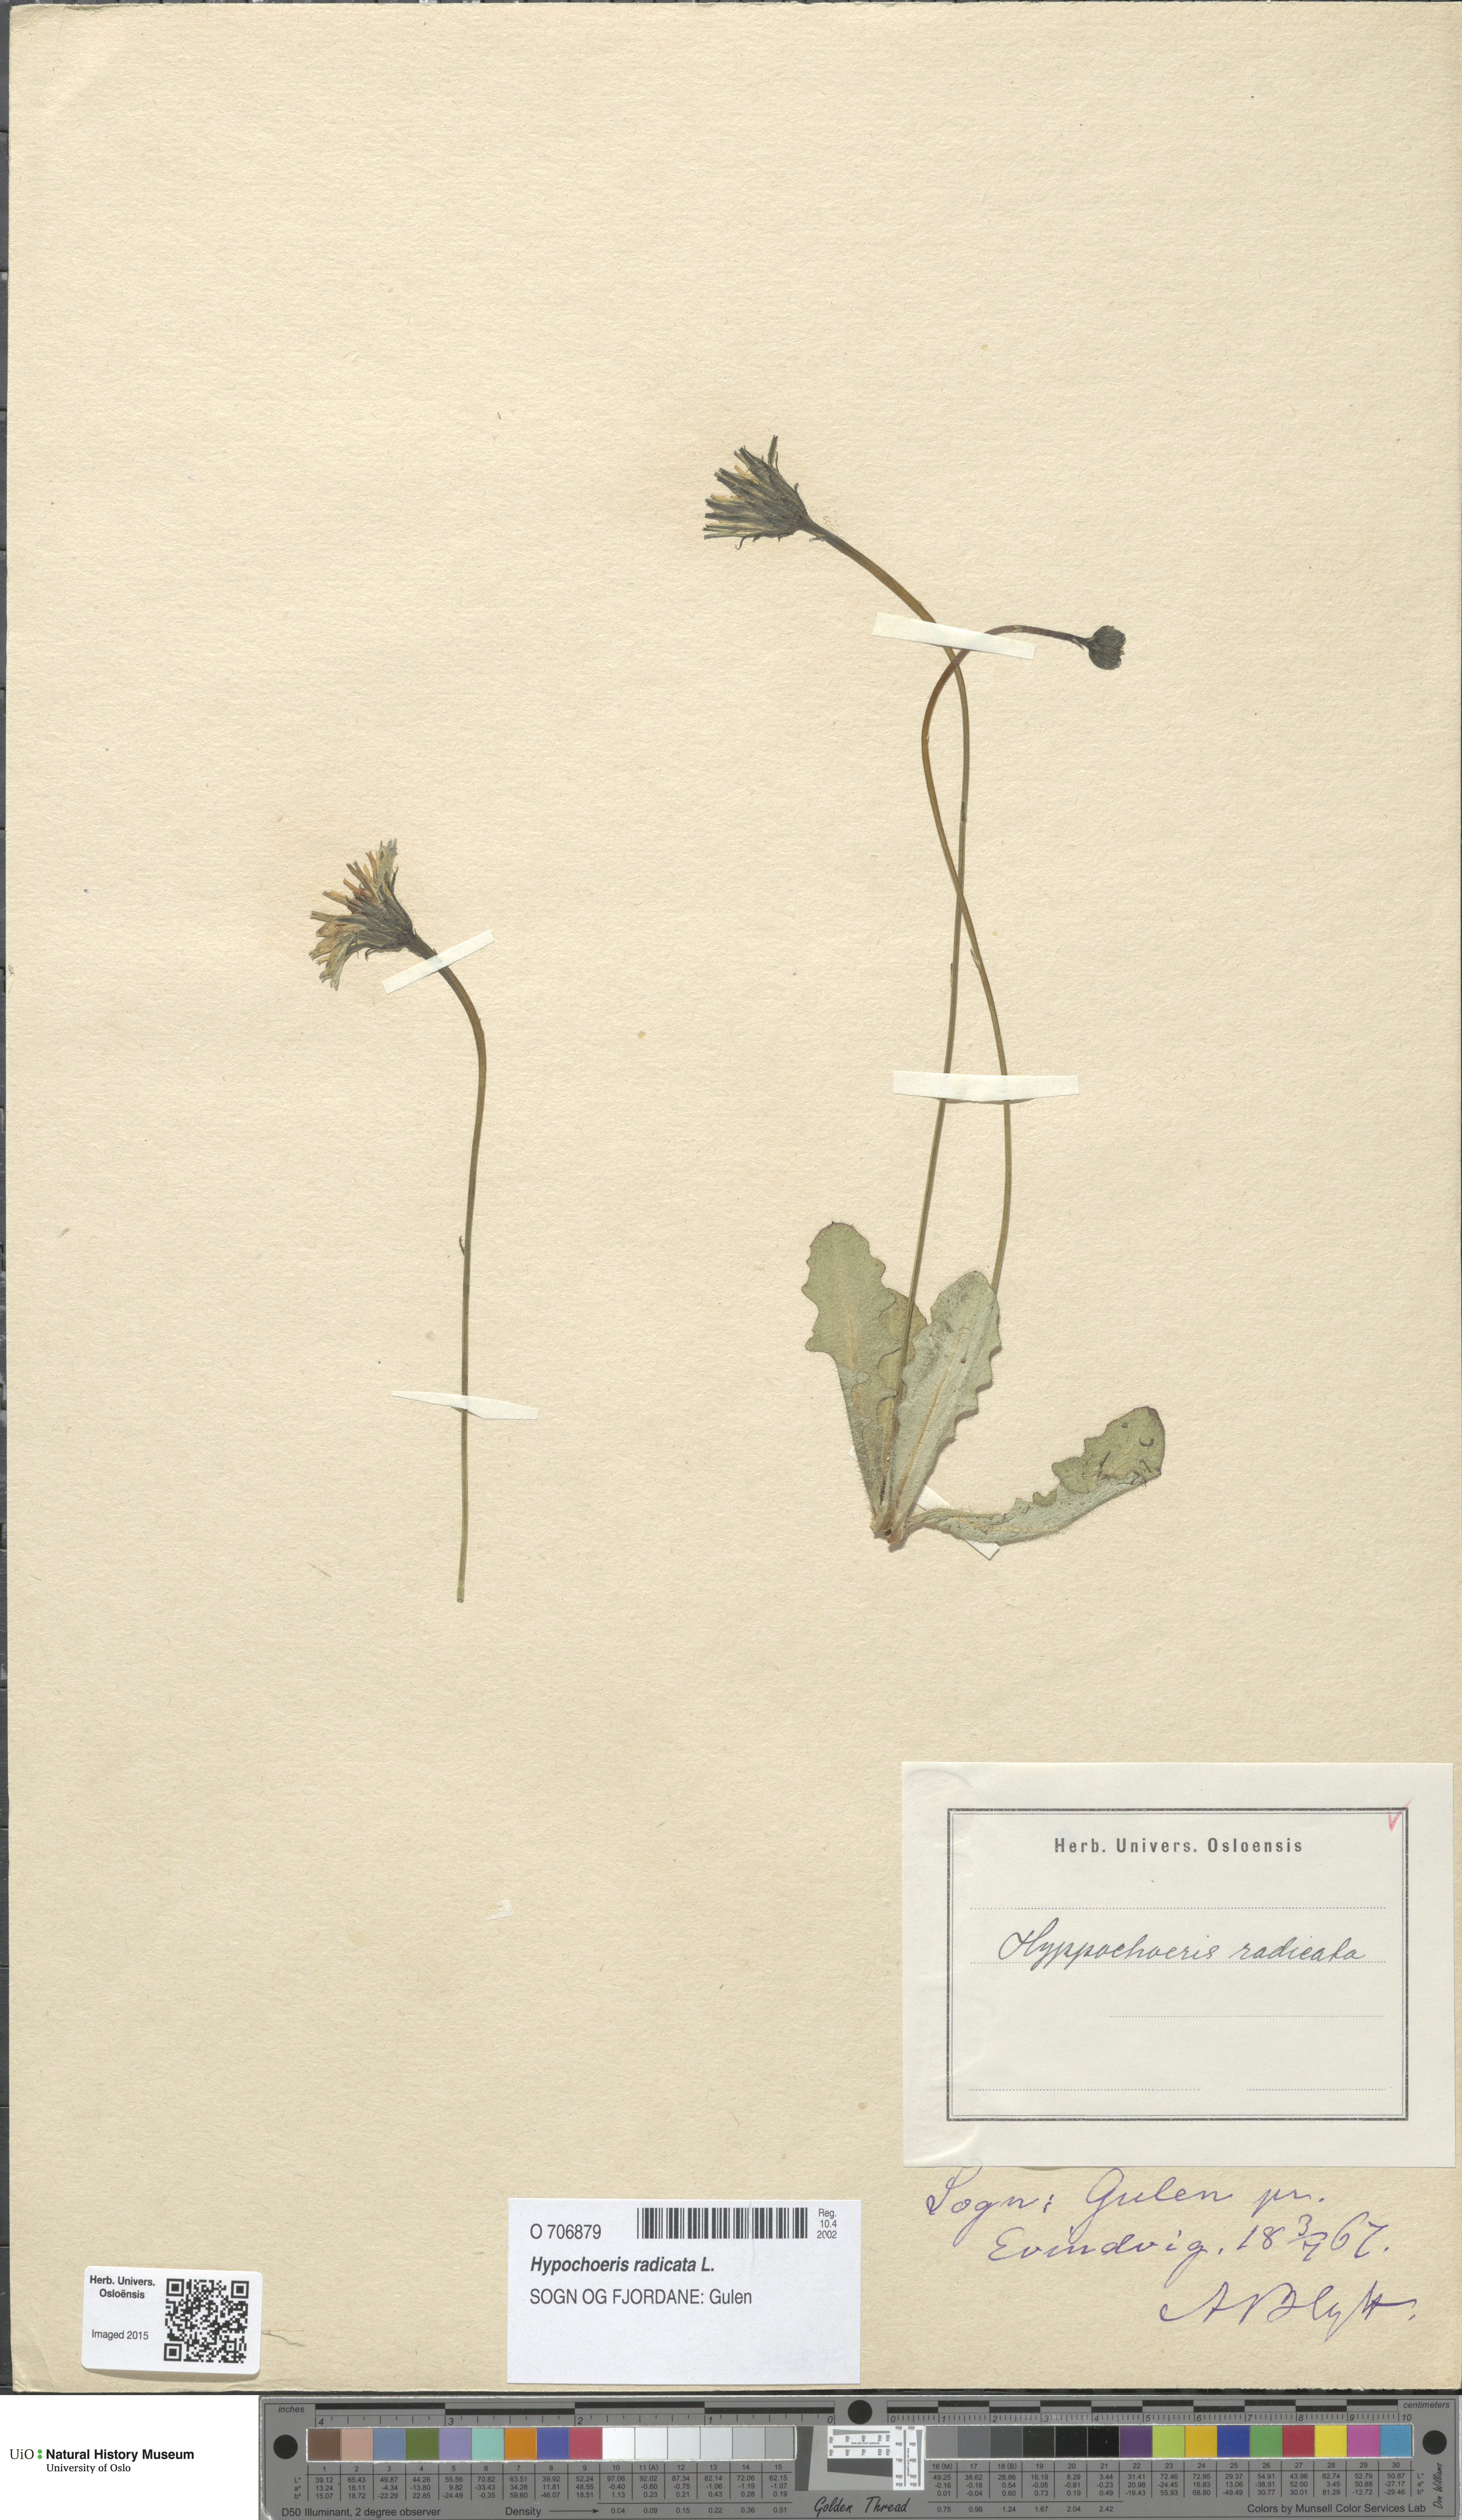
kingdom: Plantae
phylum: Tracheophyta
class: Magnoliopsida
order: Asterales
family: Asteraceae
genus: Hypochaeris
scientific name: Hypochaeris radicata
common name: Flatweed
